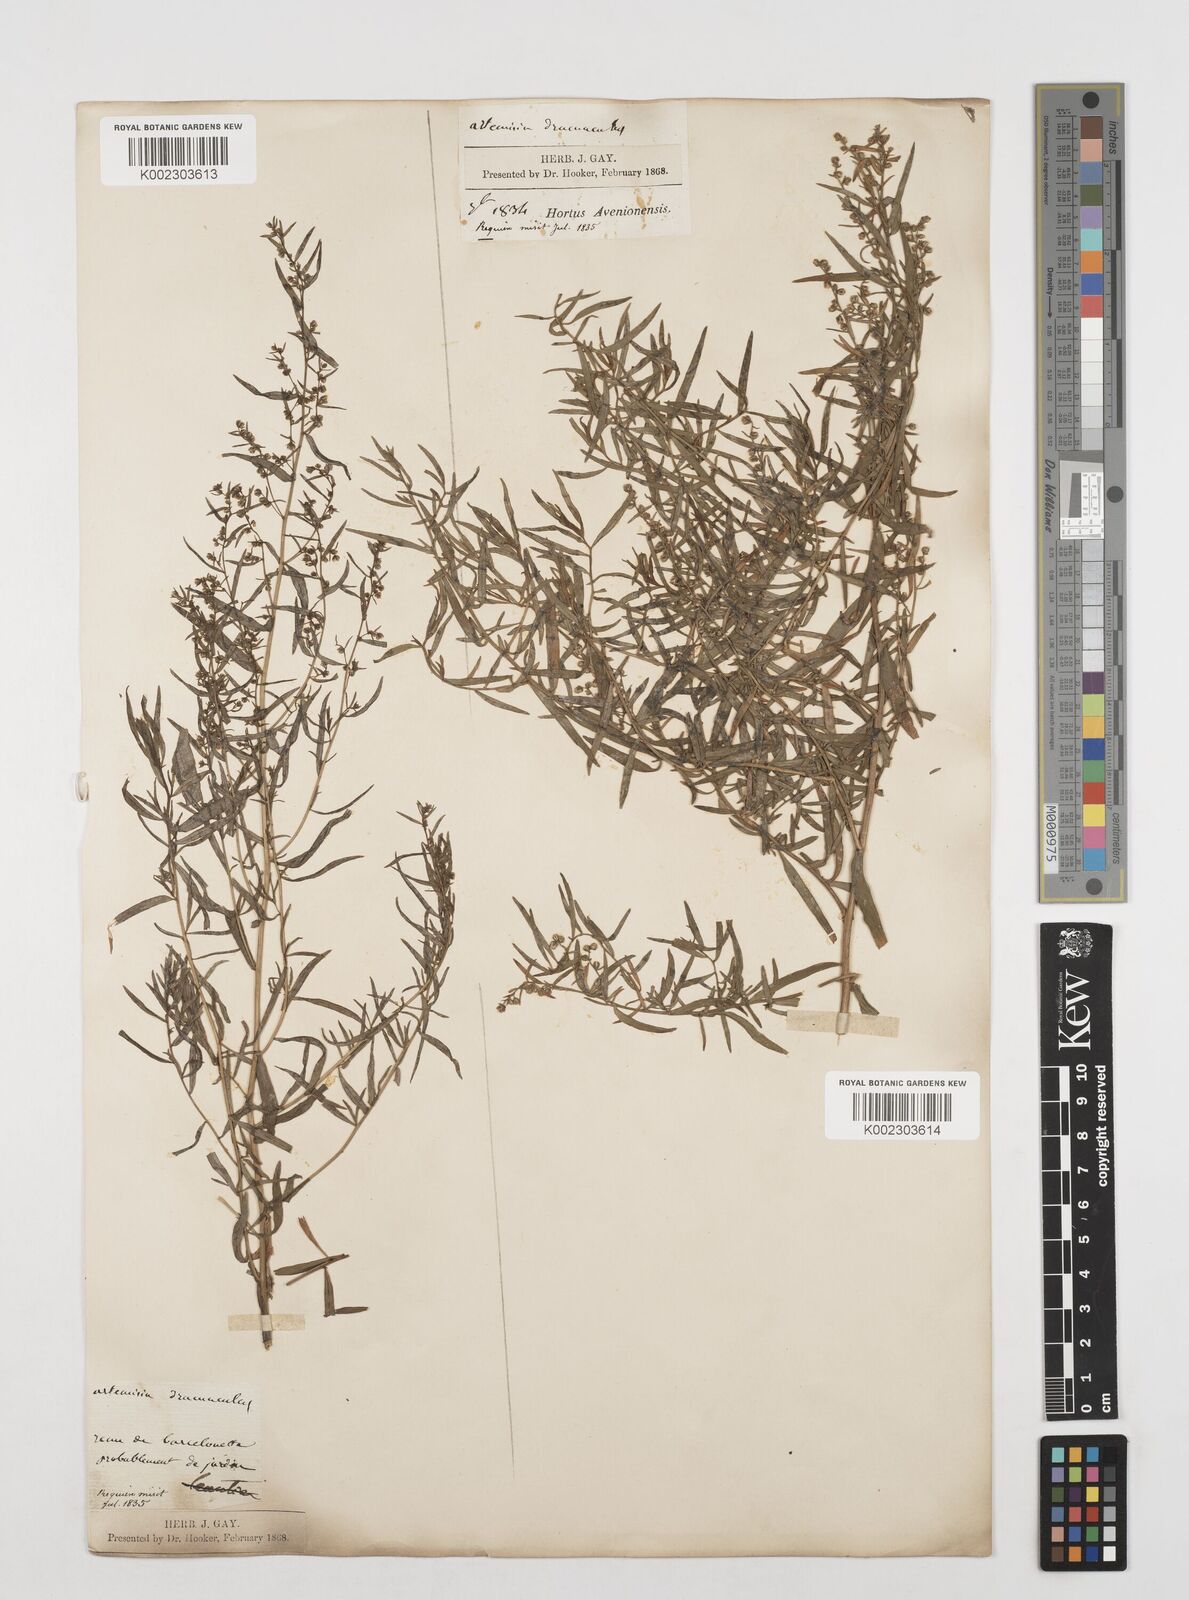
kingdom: Plantae
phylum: Tracheophyta
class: Magnoliopsida
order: Asterales
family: Asteraceae
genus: Artemisia
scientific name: Artemisia dracunculus
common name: Tarragon
